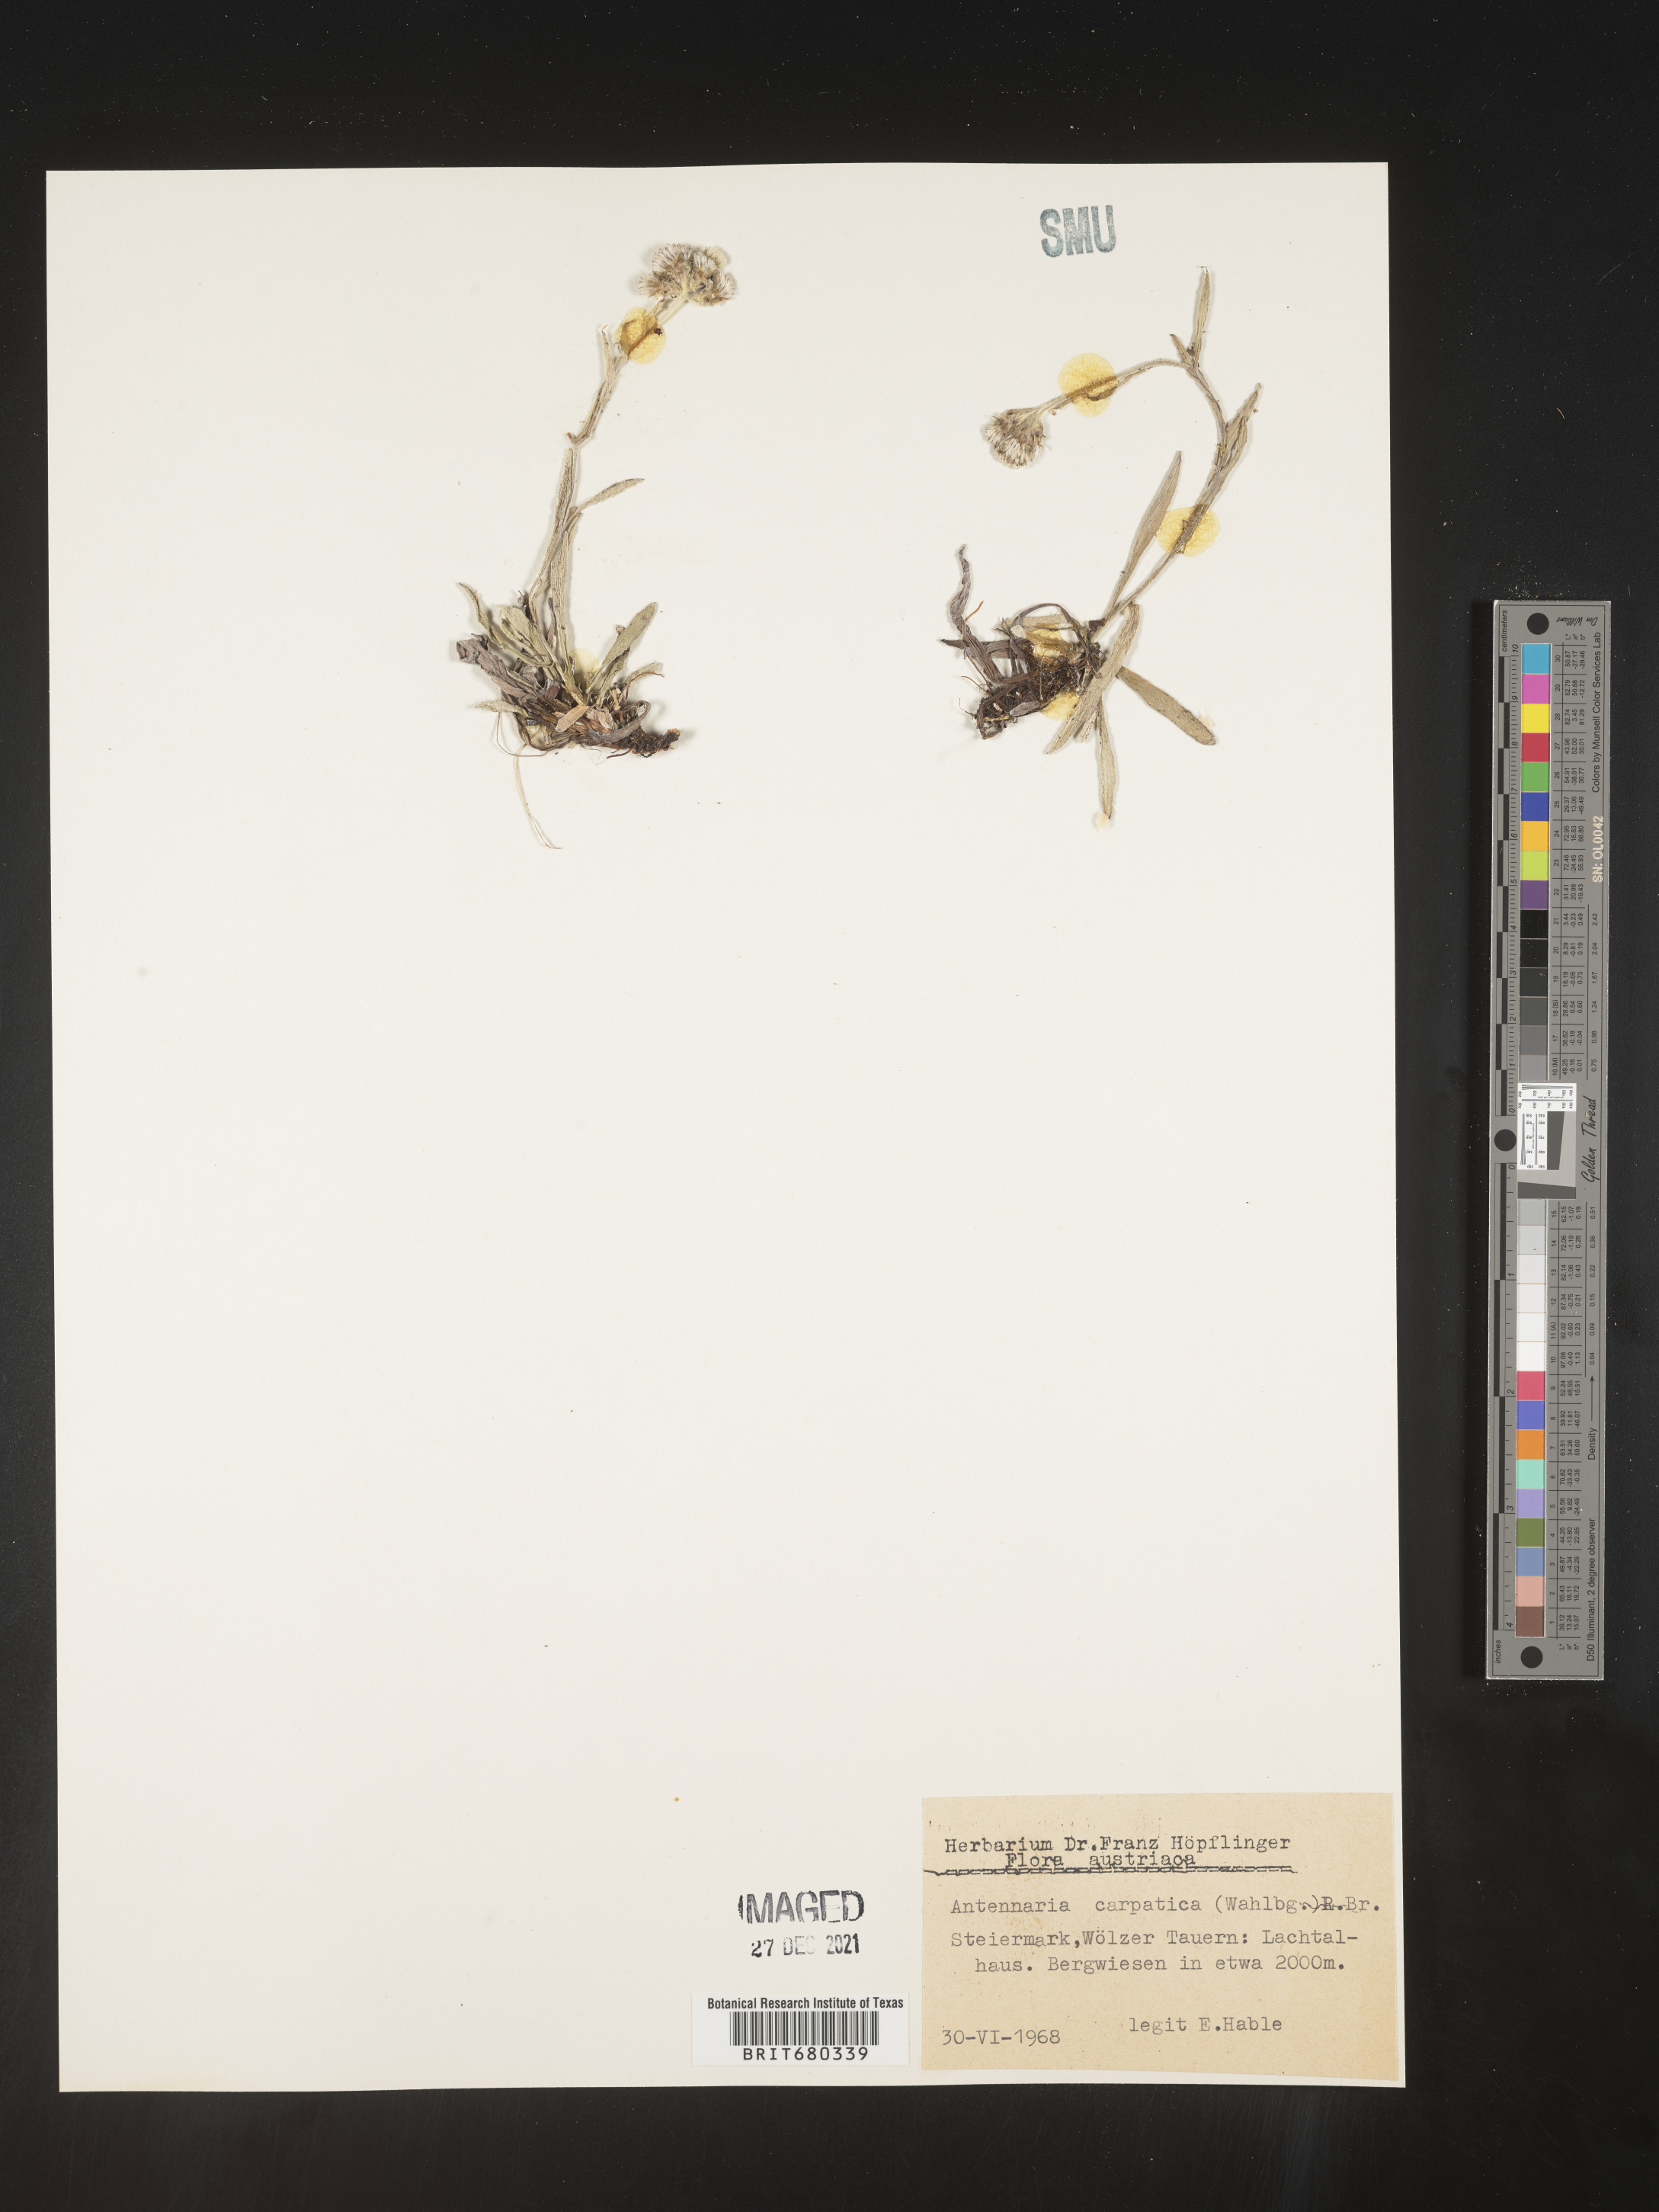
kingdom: Plantae
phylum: Tracheophyta
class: Magnoliopsida
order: Asterales
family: Asteraceae
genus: Antennaria
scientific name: Antennaria
